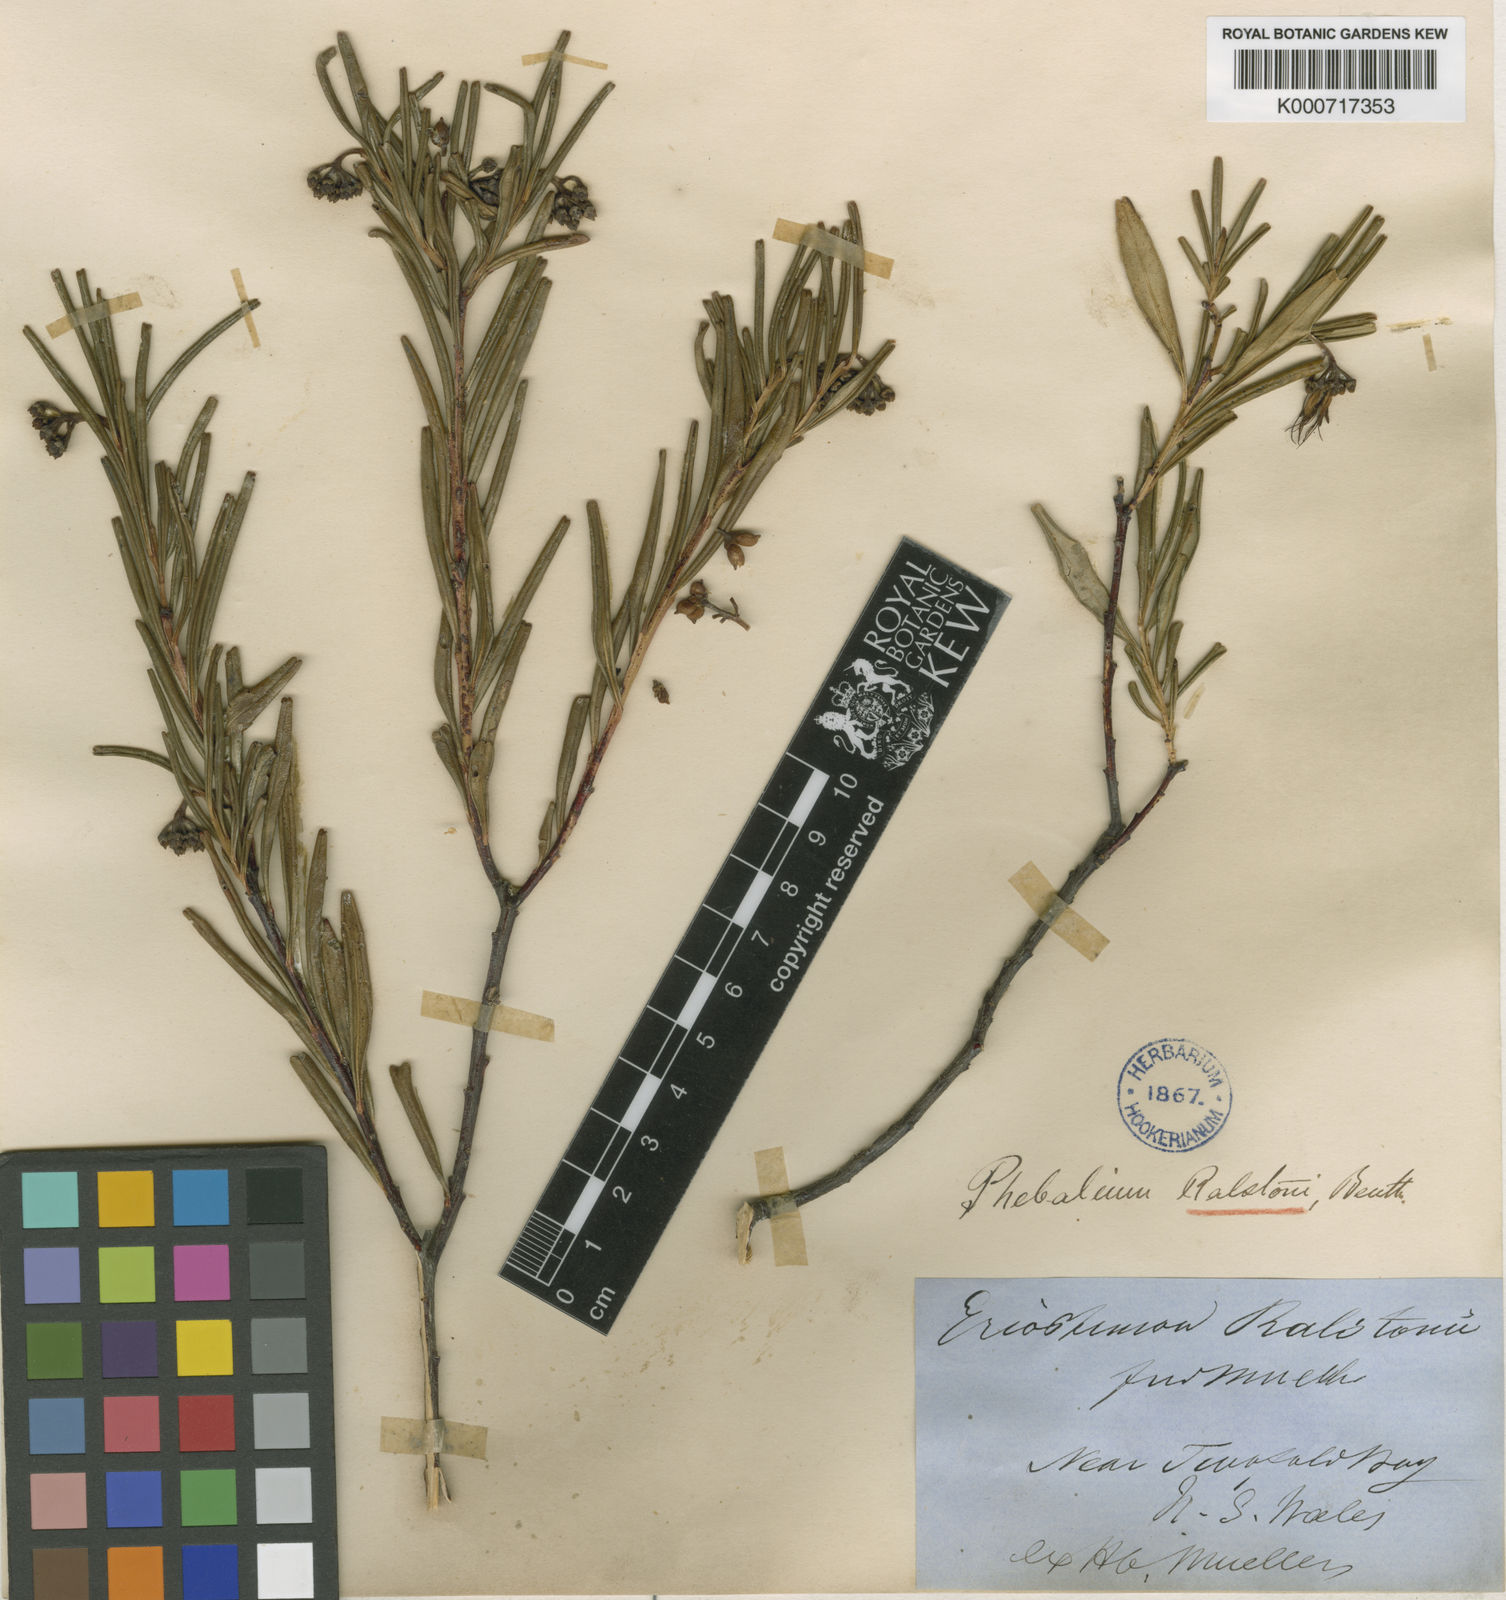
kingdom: Plantae
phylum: Tracheophyta
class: Magnoliopsida
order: Sapindales
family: Rutaceae
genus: Leionema
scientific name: Leionema ralstonii
